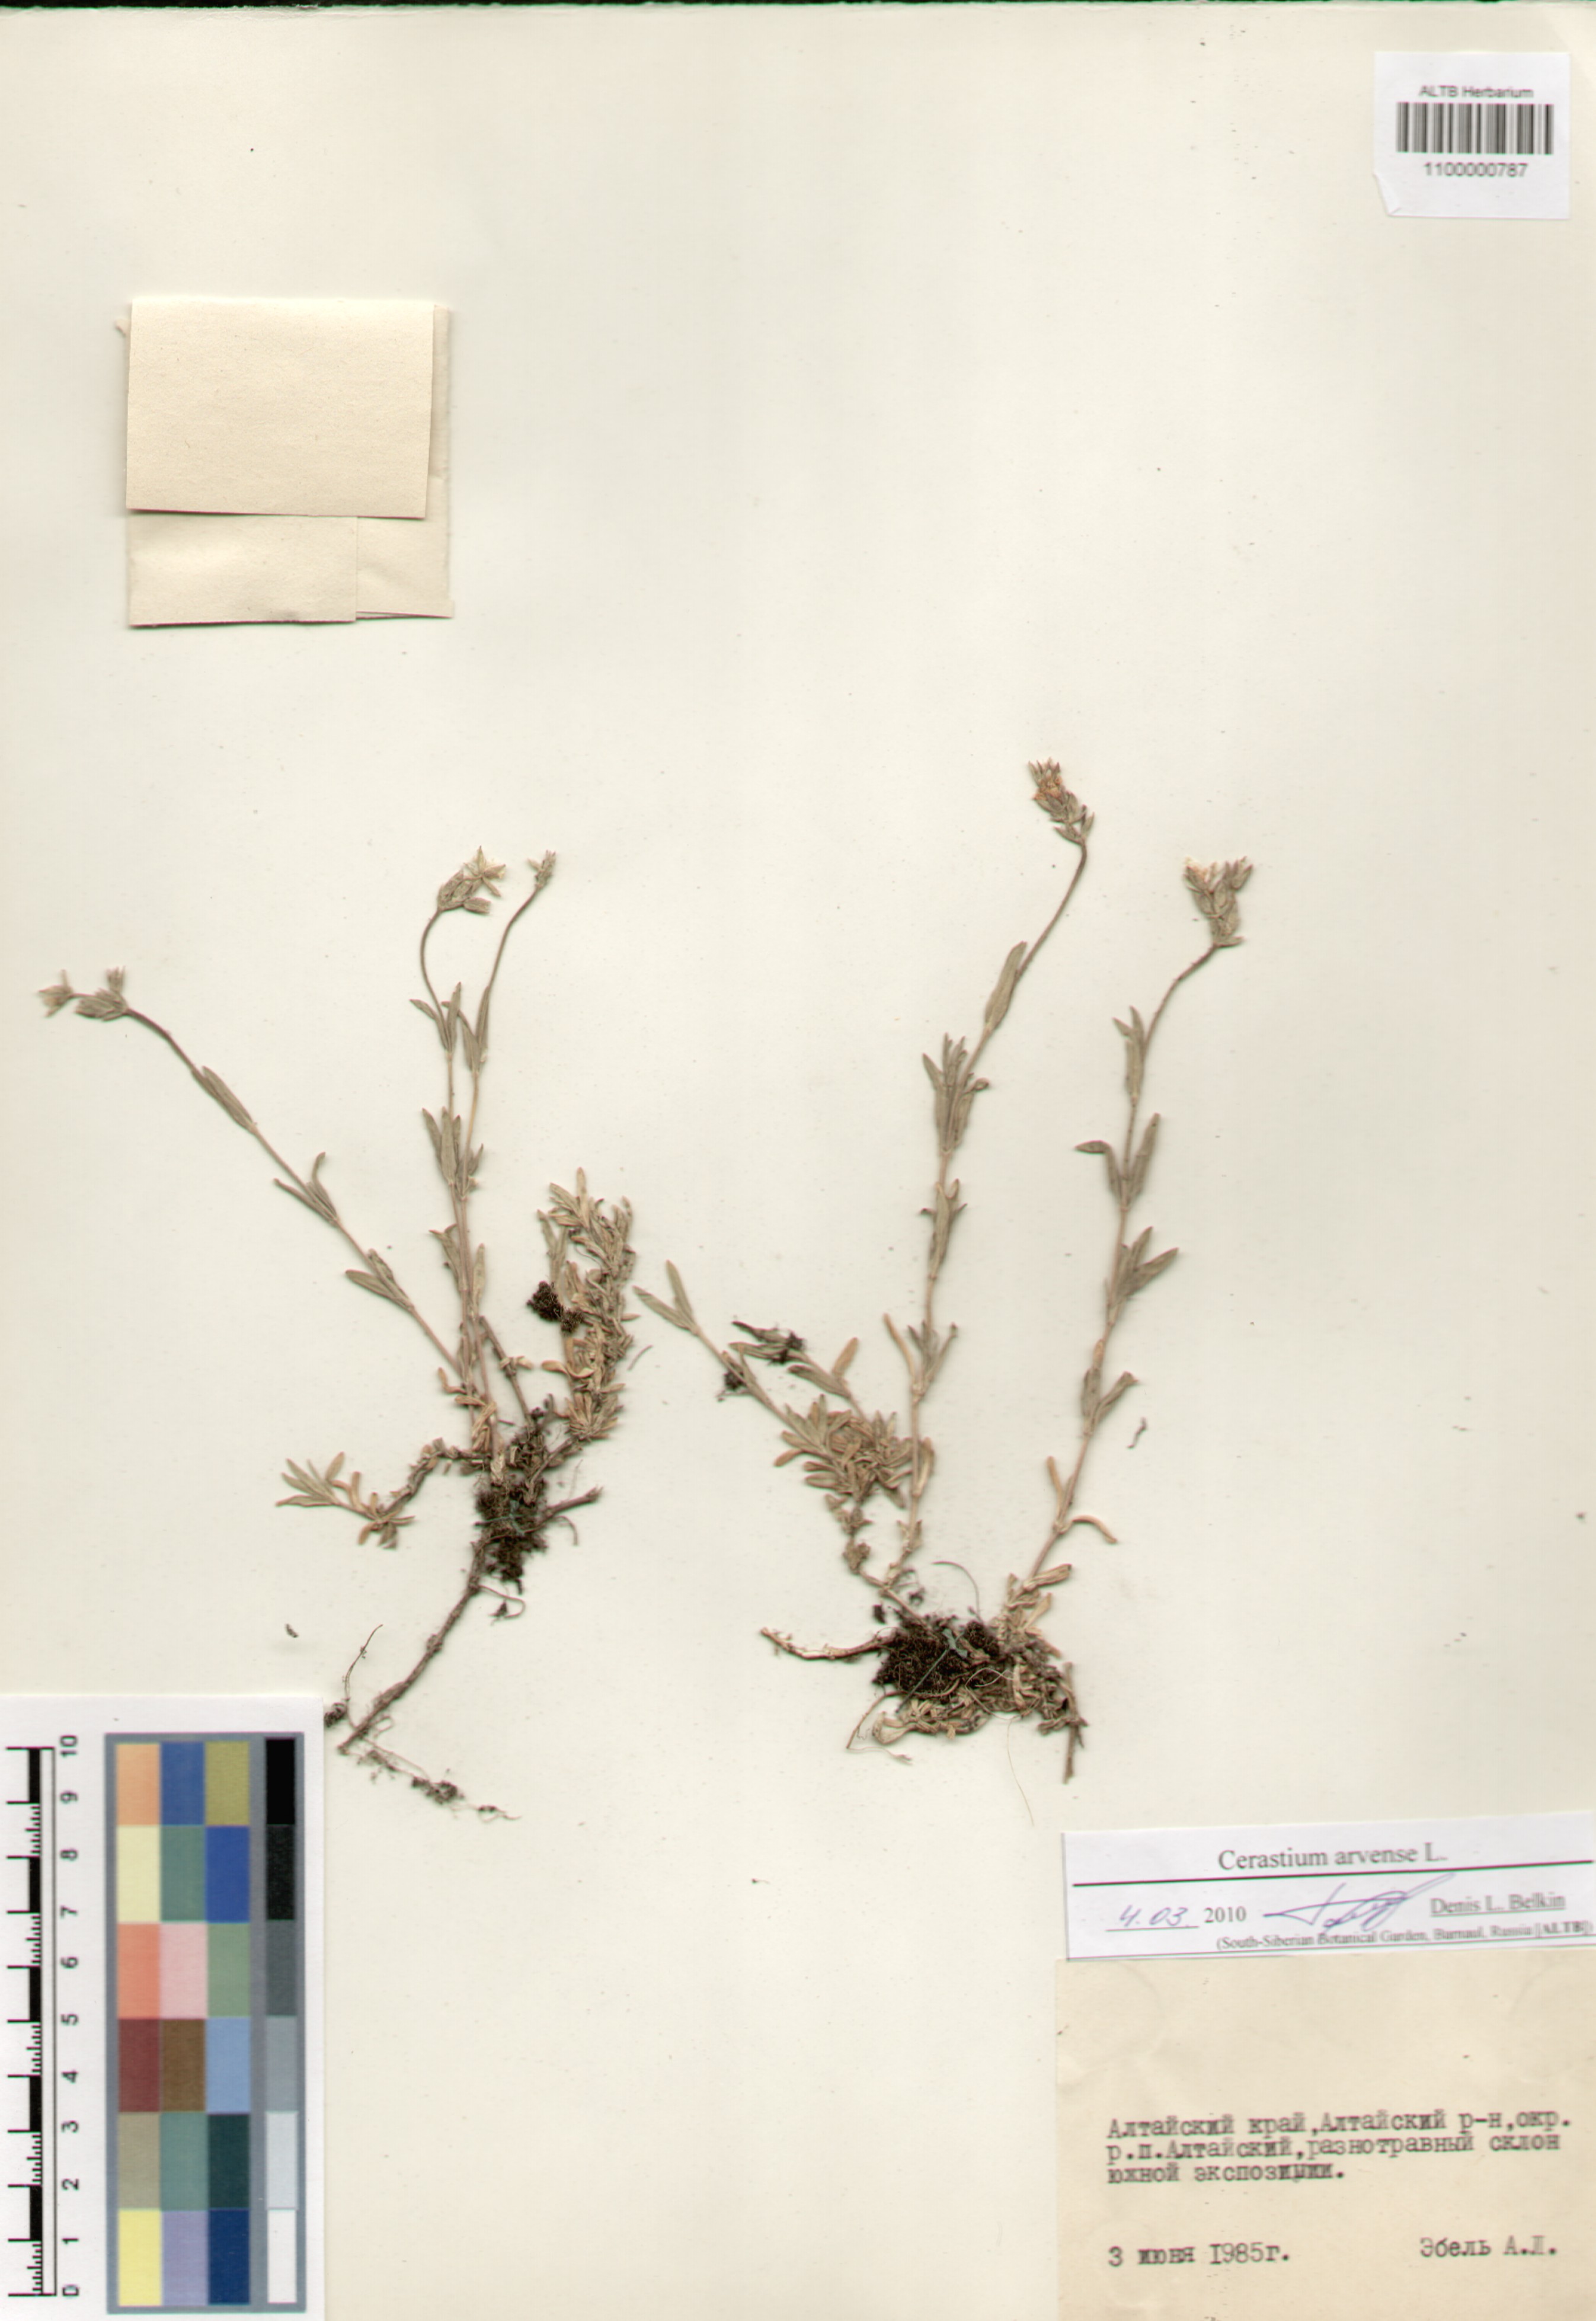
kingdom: Plantae
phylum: Tracheophyta
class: Magnoliopsida
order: Caryophyllales
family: Caryophyllaceae
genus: Cerastium
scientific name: Cerastium arvense
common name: Field mouse-ear
